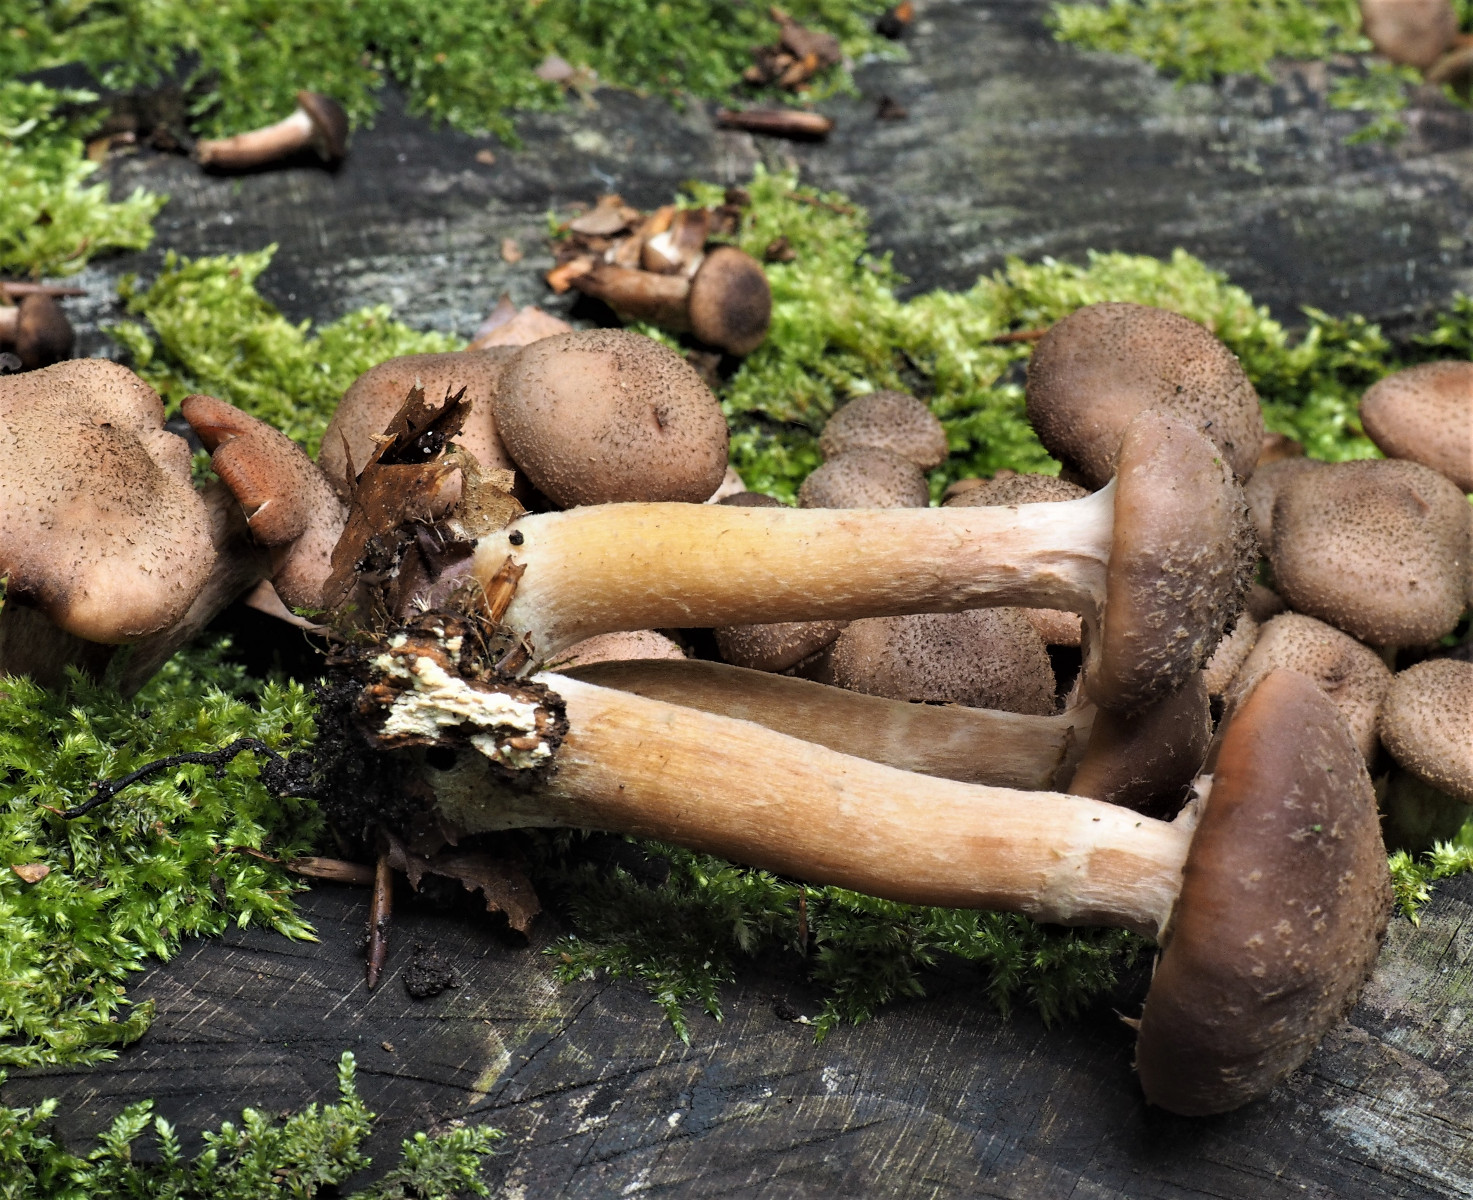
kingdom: Fungi
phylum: Basidiomycota
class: Agaricomycetes
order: Agaricales
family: Physalacriaceae
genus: Armillaria
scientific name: Armillaria
